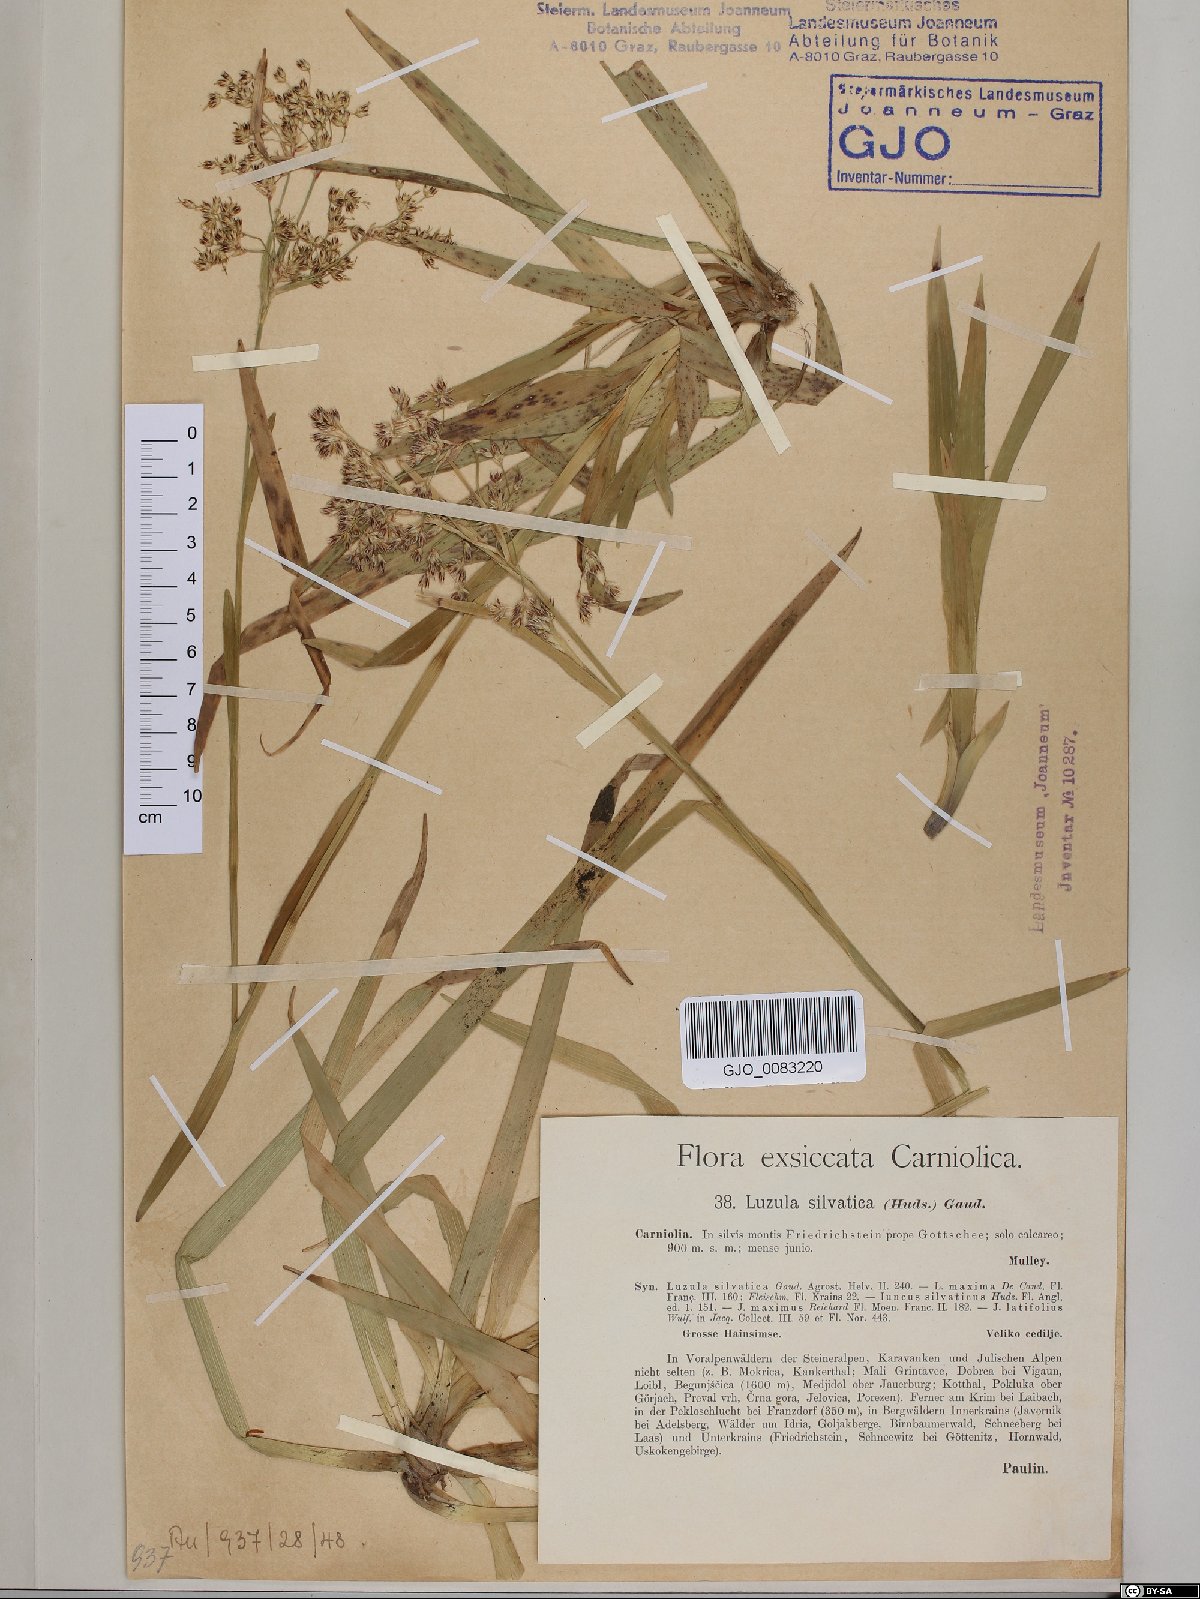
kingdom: Plantae
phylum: Tracheophyta
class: Liliopsida
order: Poales
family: Juncaceae
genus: Luzula
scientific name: Luzula sylvatica
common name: Great wood-rush
